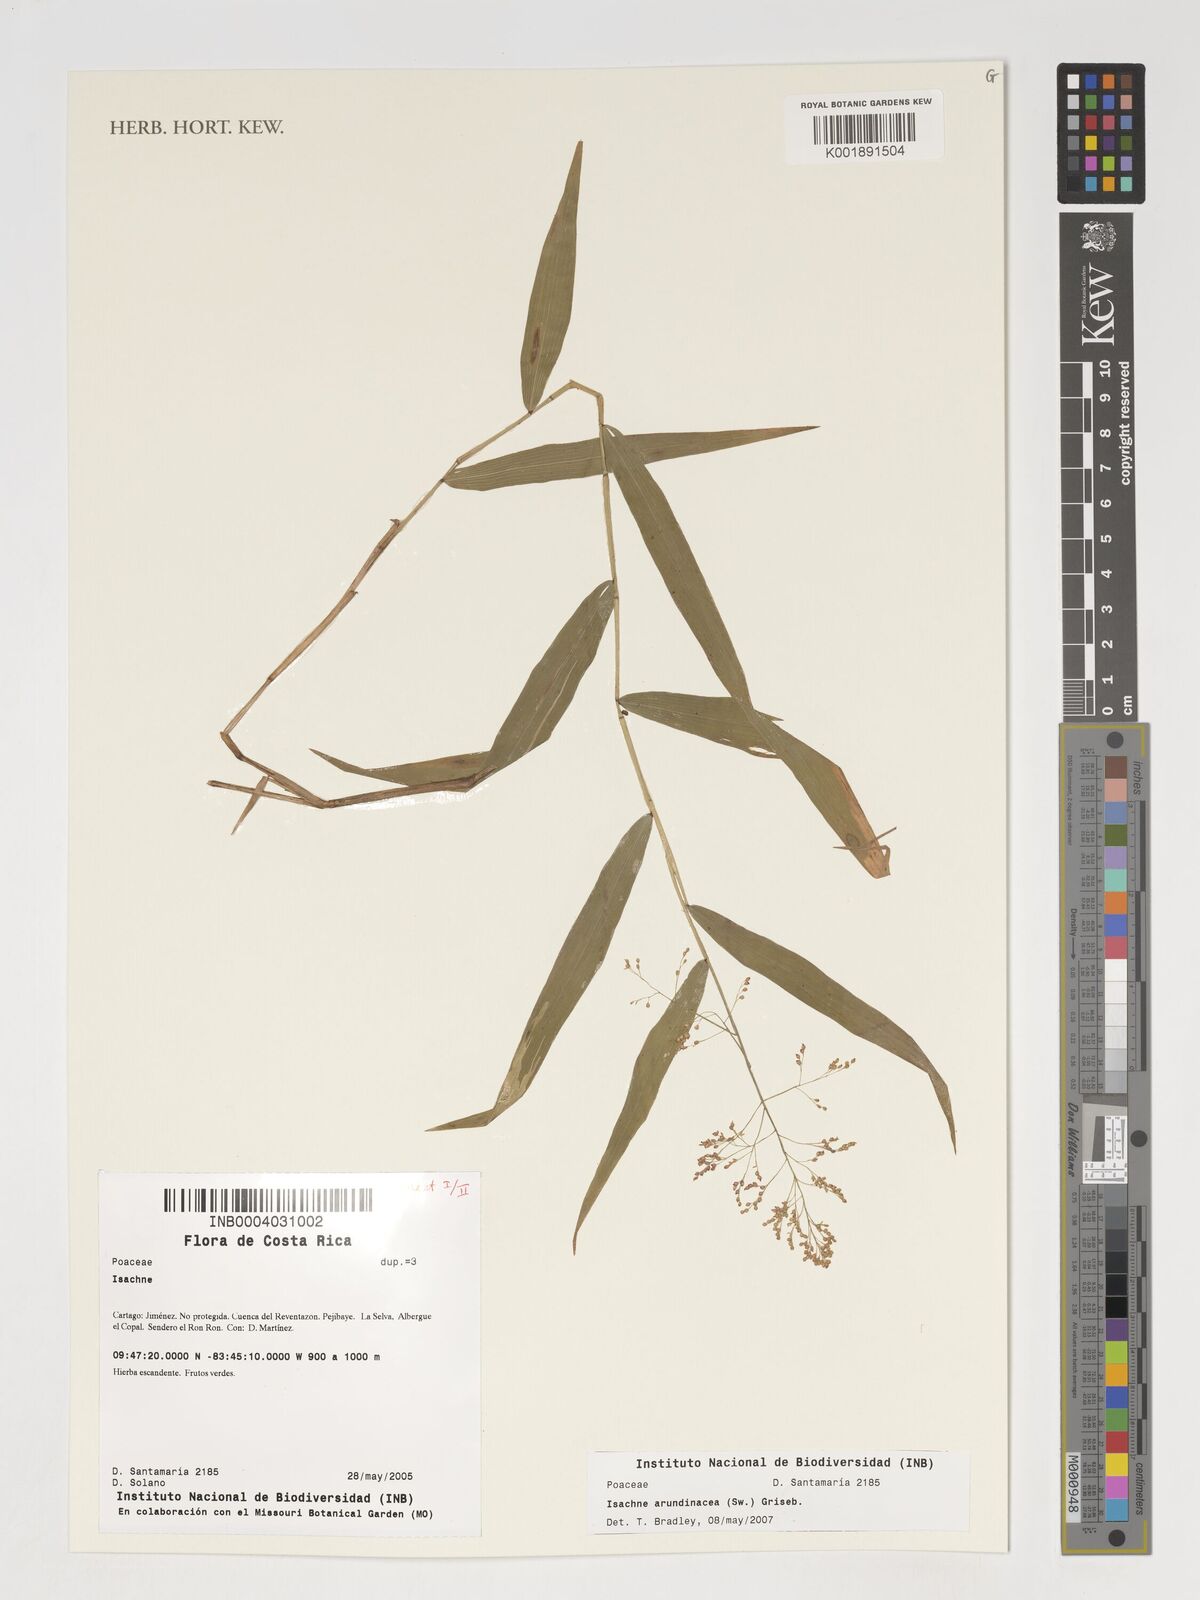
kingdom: Plantae
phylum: Tracheophyta
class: Liliopsida
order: Poales
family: Poaceae
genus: Isachne
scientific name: Isachne arundinacea
